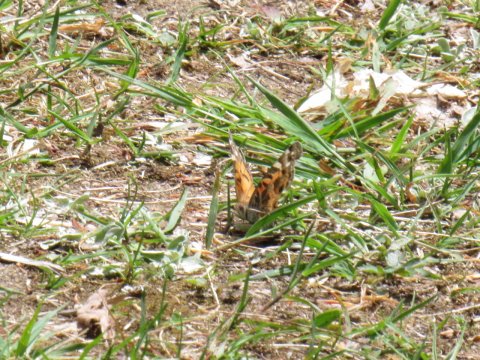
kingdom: Animalia
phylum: Arthropoda
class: Insecta
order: Lepidoptera
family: Nymphalidae
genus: Vanessa
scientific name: Vanessa virginiensis
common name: American Lady
